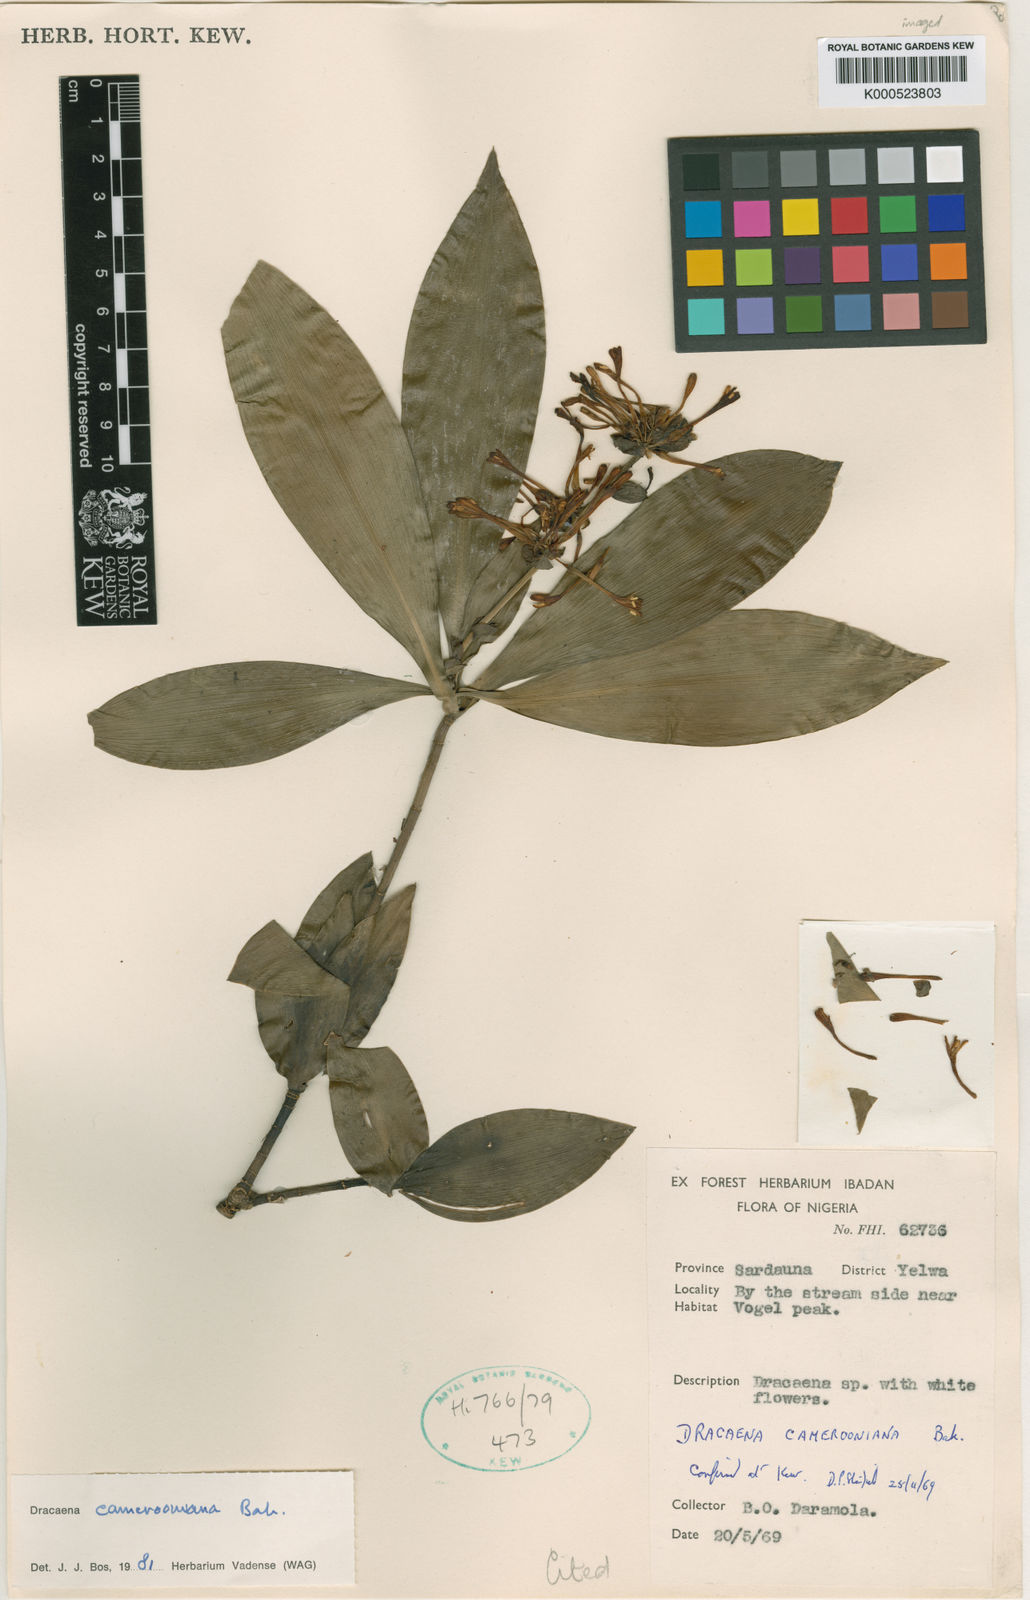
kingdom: Plantae
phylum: Tracheophyta
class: Liliopsida
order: Asparagales
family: Asparagaceae
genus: Dracaena
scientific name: Dracaena camerooniana
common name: Dragon tree
